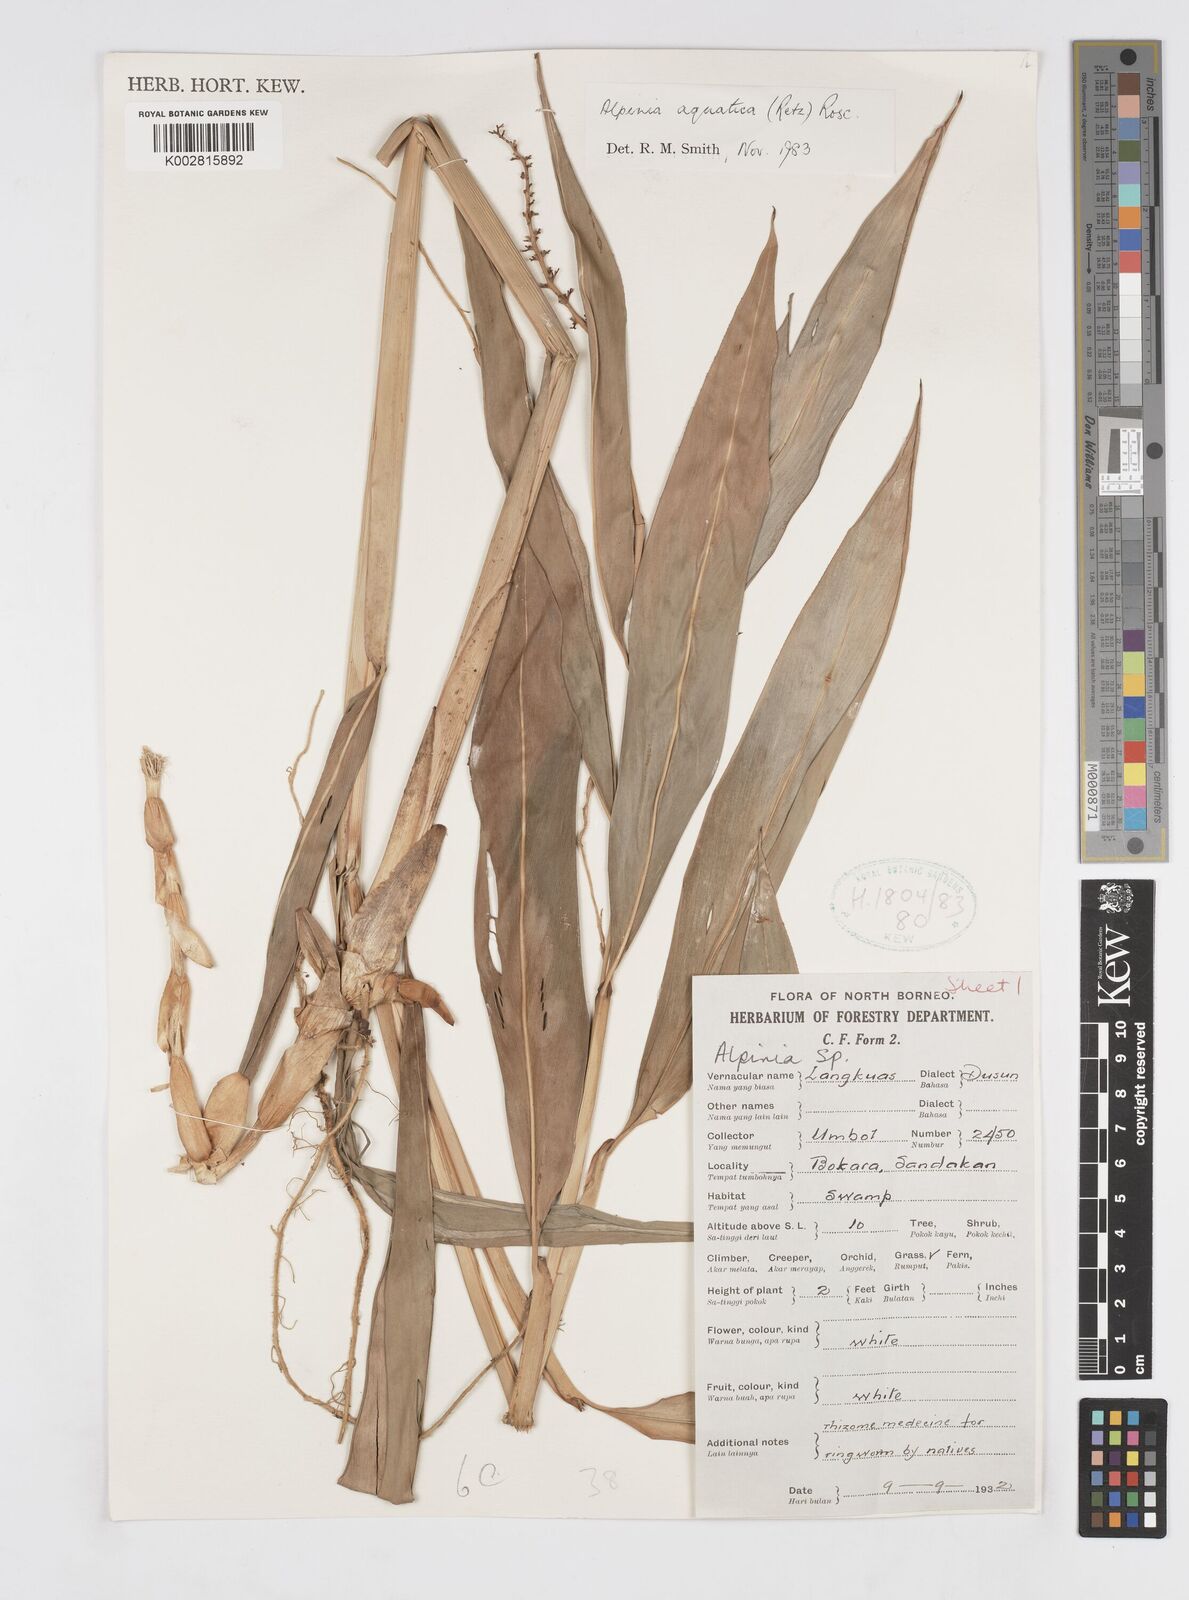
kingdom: Plantae
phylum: Tracheophyta
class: Liliopsida
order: Zingiberales
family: Zingiberaceae
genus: Alpinia
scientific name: Alpinia aquatica
